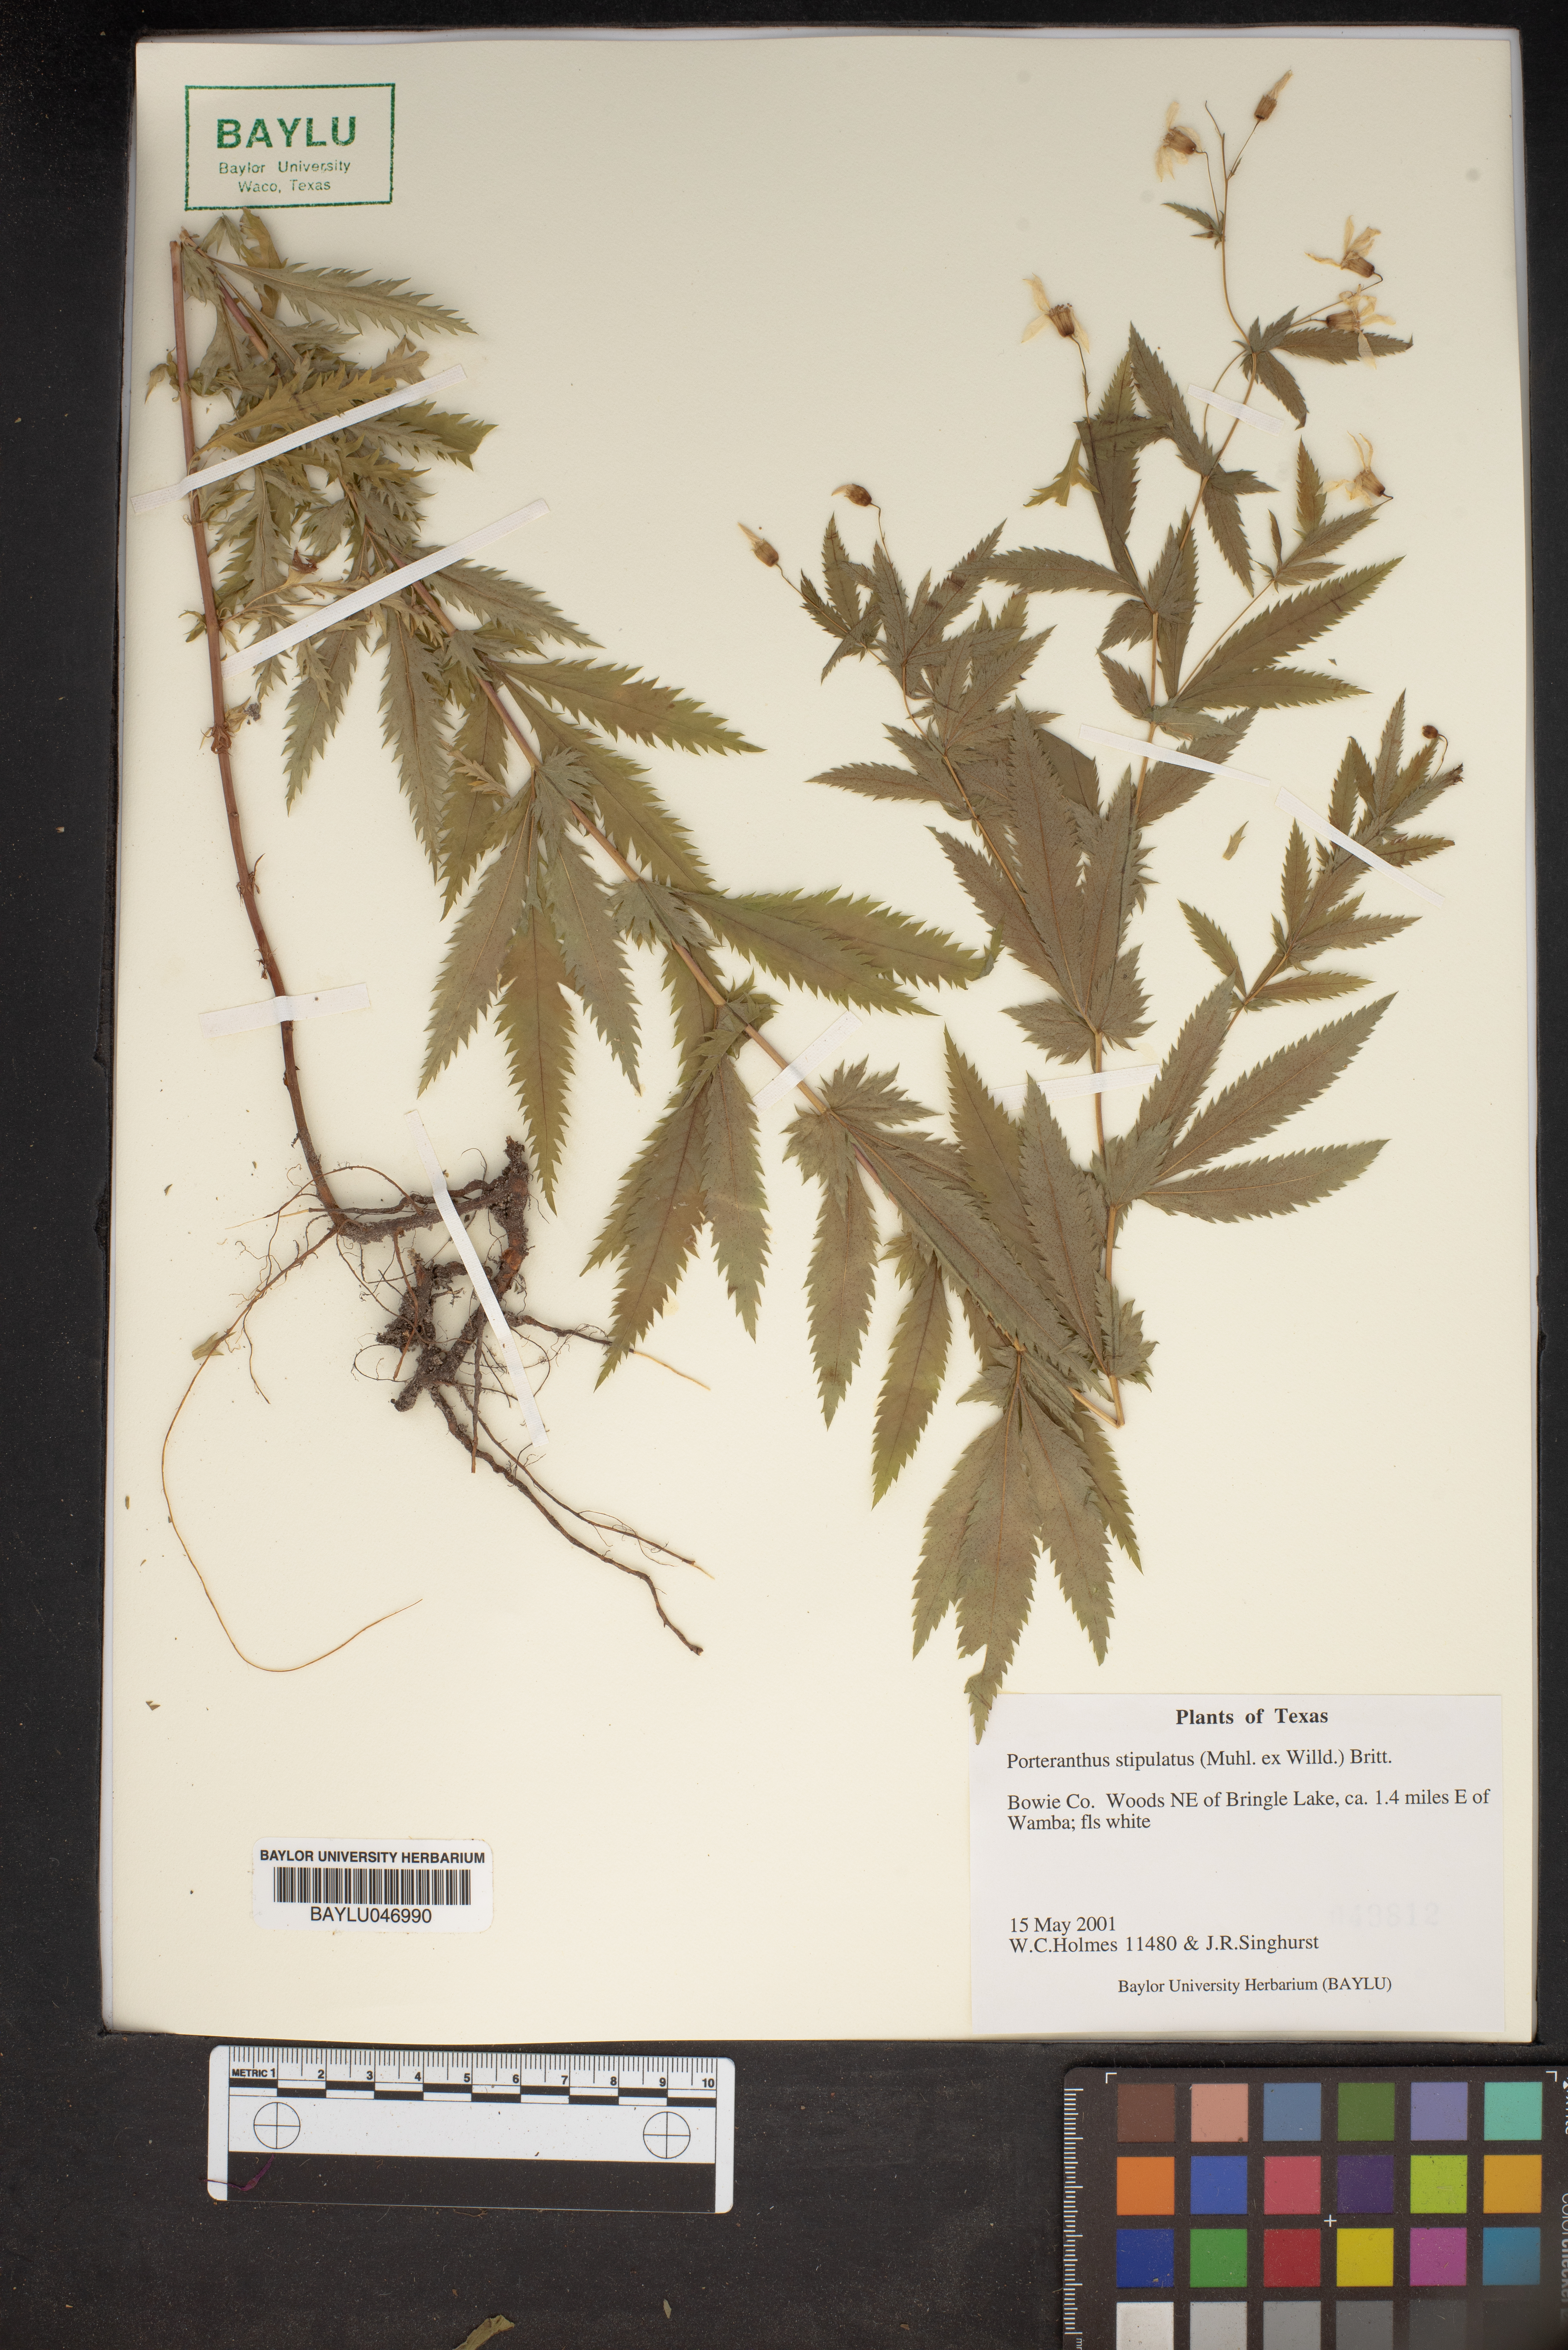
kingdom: Plantae
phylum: Tracheophyta
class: Magnoliopsida
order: Rosales
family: Rosaceae
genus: Gillenia
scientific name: Gillenia stipulata
